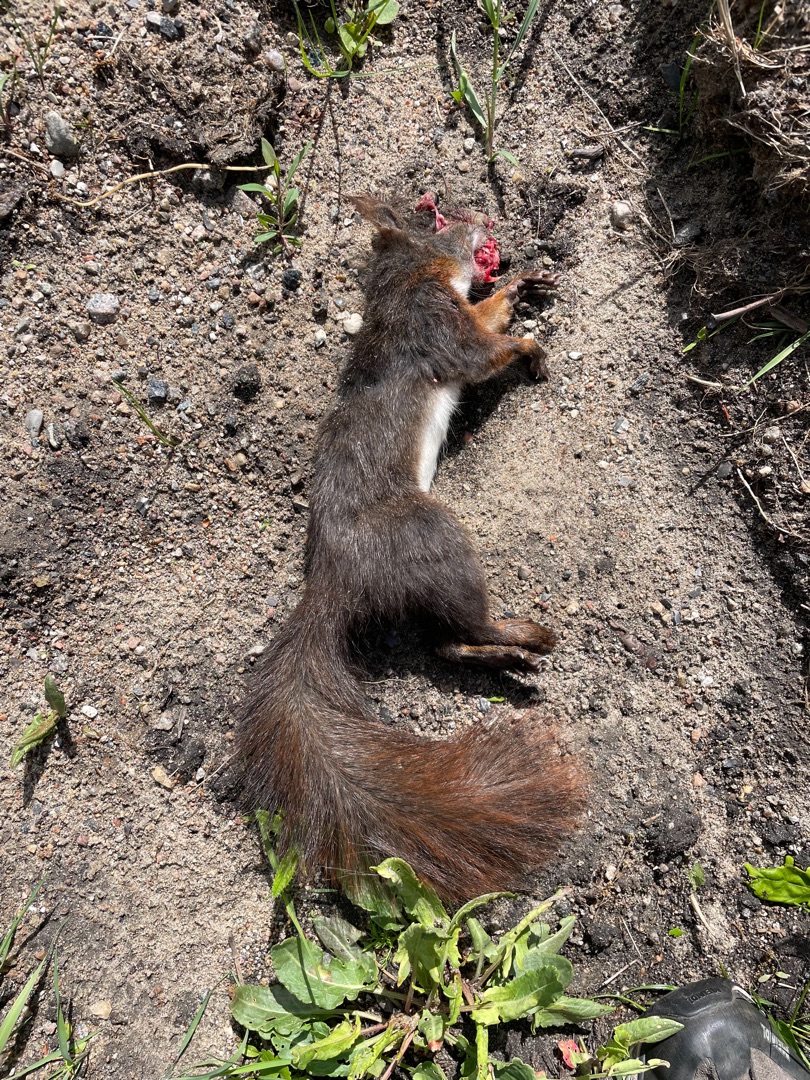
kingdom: Animalia
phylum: Chordata
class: Mammalia
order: Rodentia
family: Sciuridae
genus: Sciurus
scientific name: Sciurus vulgaris
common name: Egern
